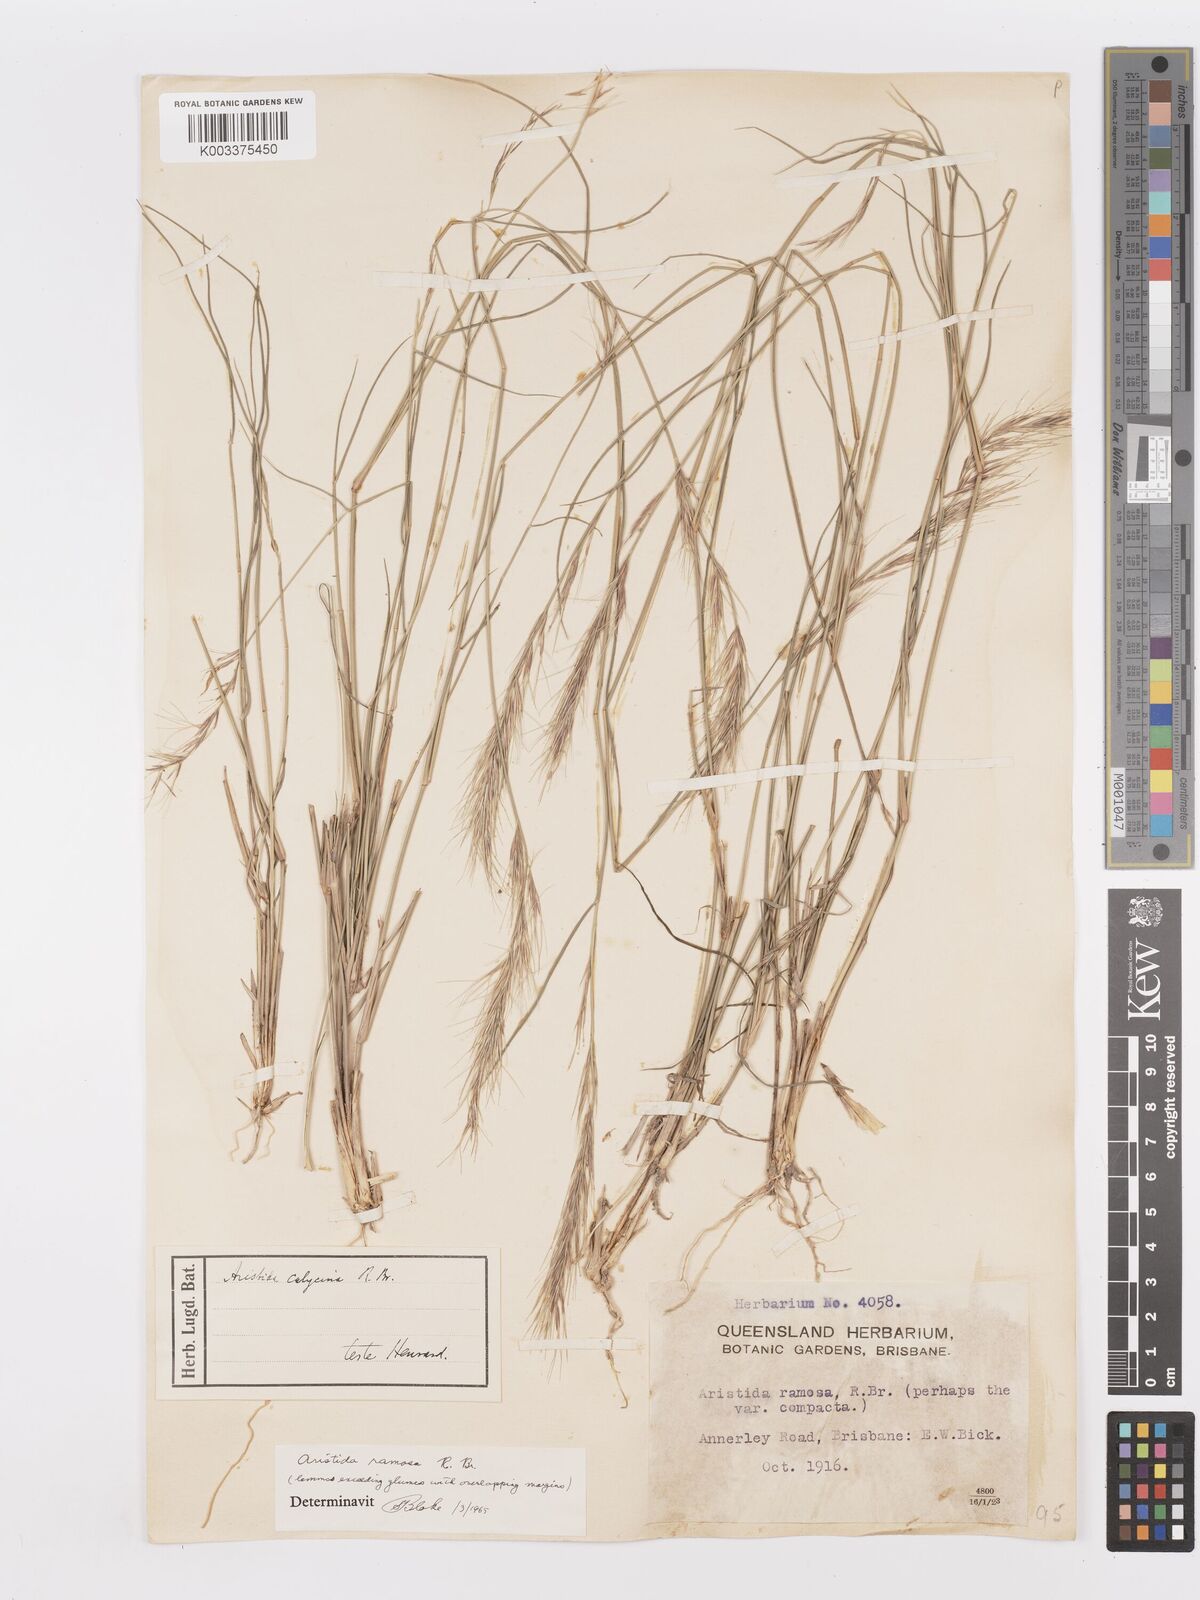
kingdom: Plantae
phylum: Tracheophyta
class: Liliopsida
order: Poales
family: Poaceae
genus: Aristida
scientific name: Aristida ramosa
